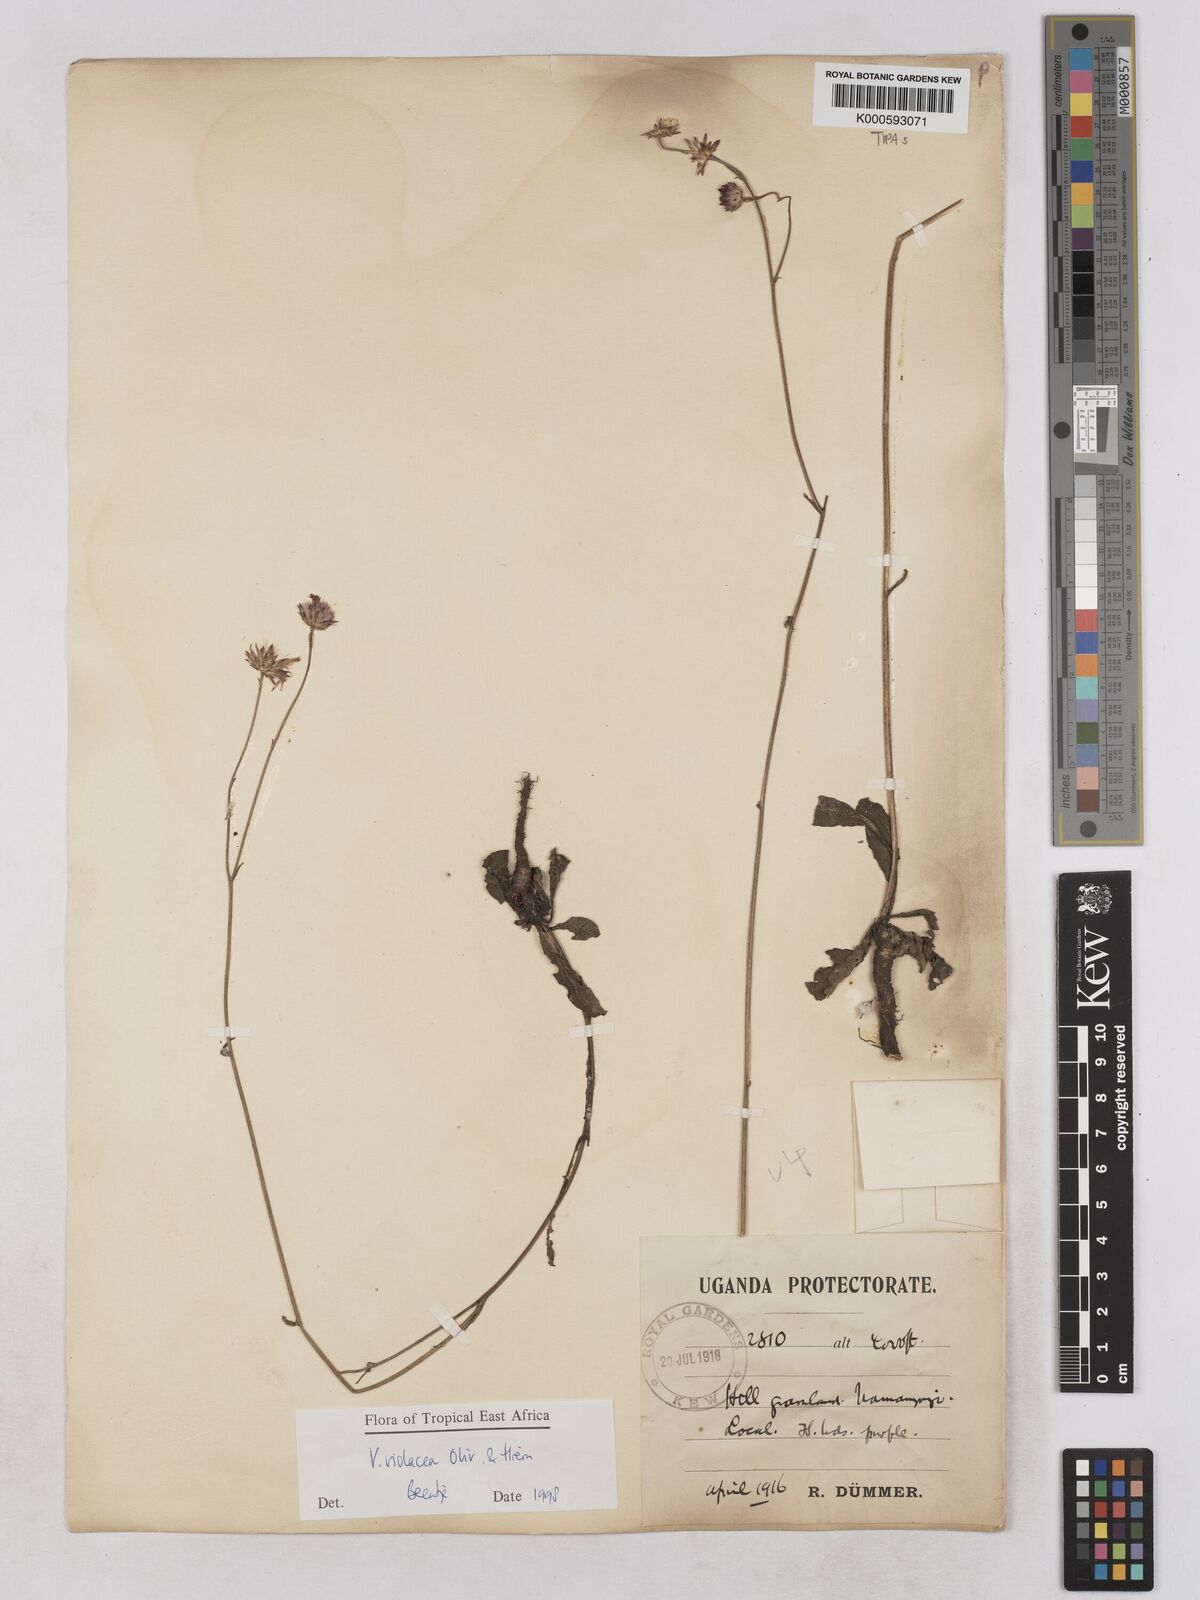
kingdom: Plantae
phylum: Tracheophyta
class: Magnoliopsida
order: Asterales
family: Asteraceae
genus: Vernonia
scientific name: Vernonia violacea
